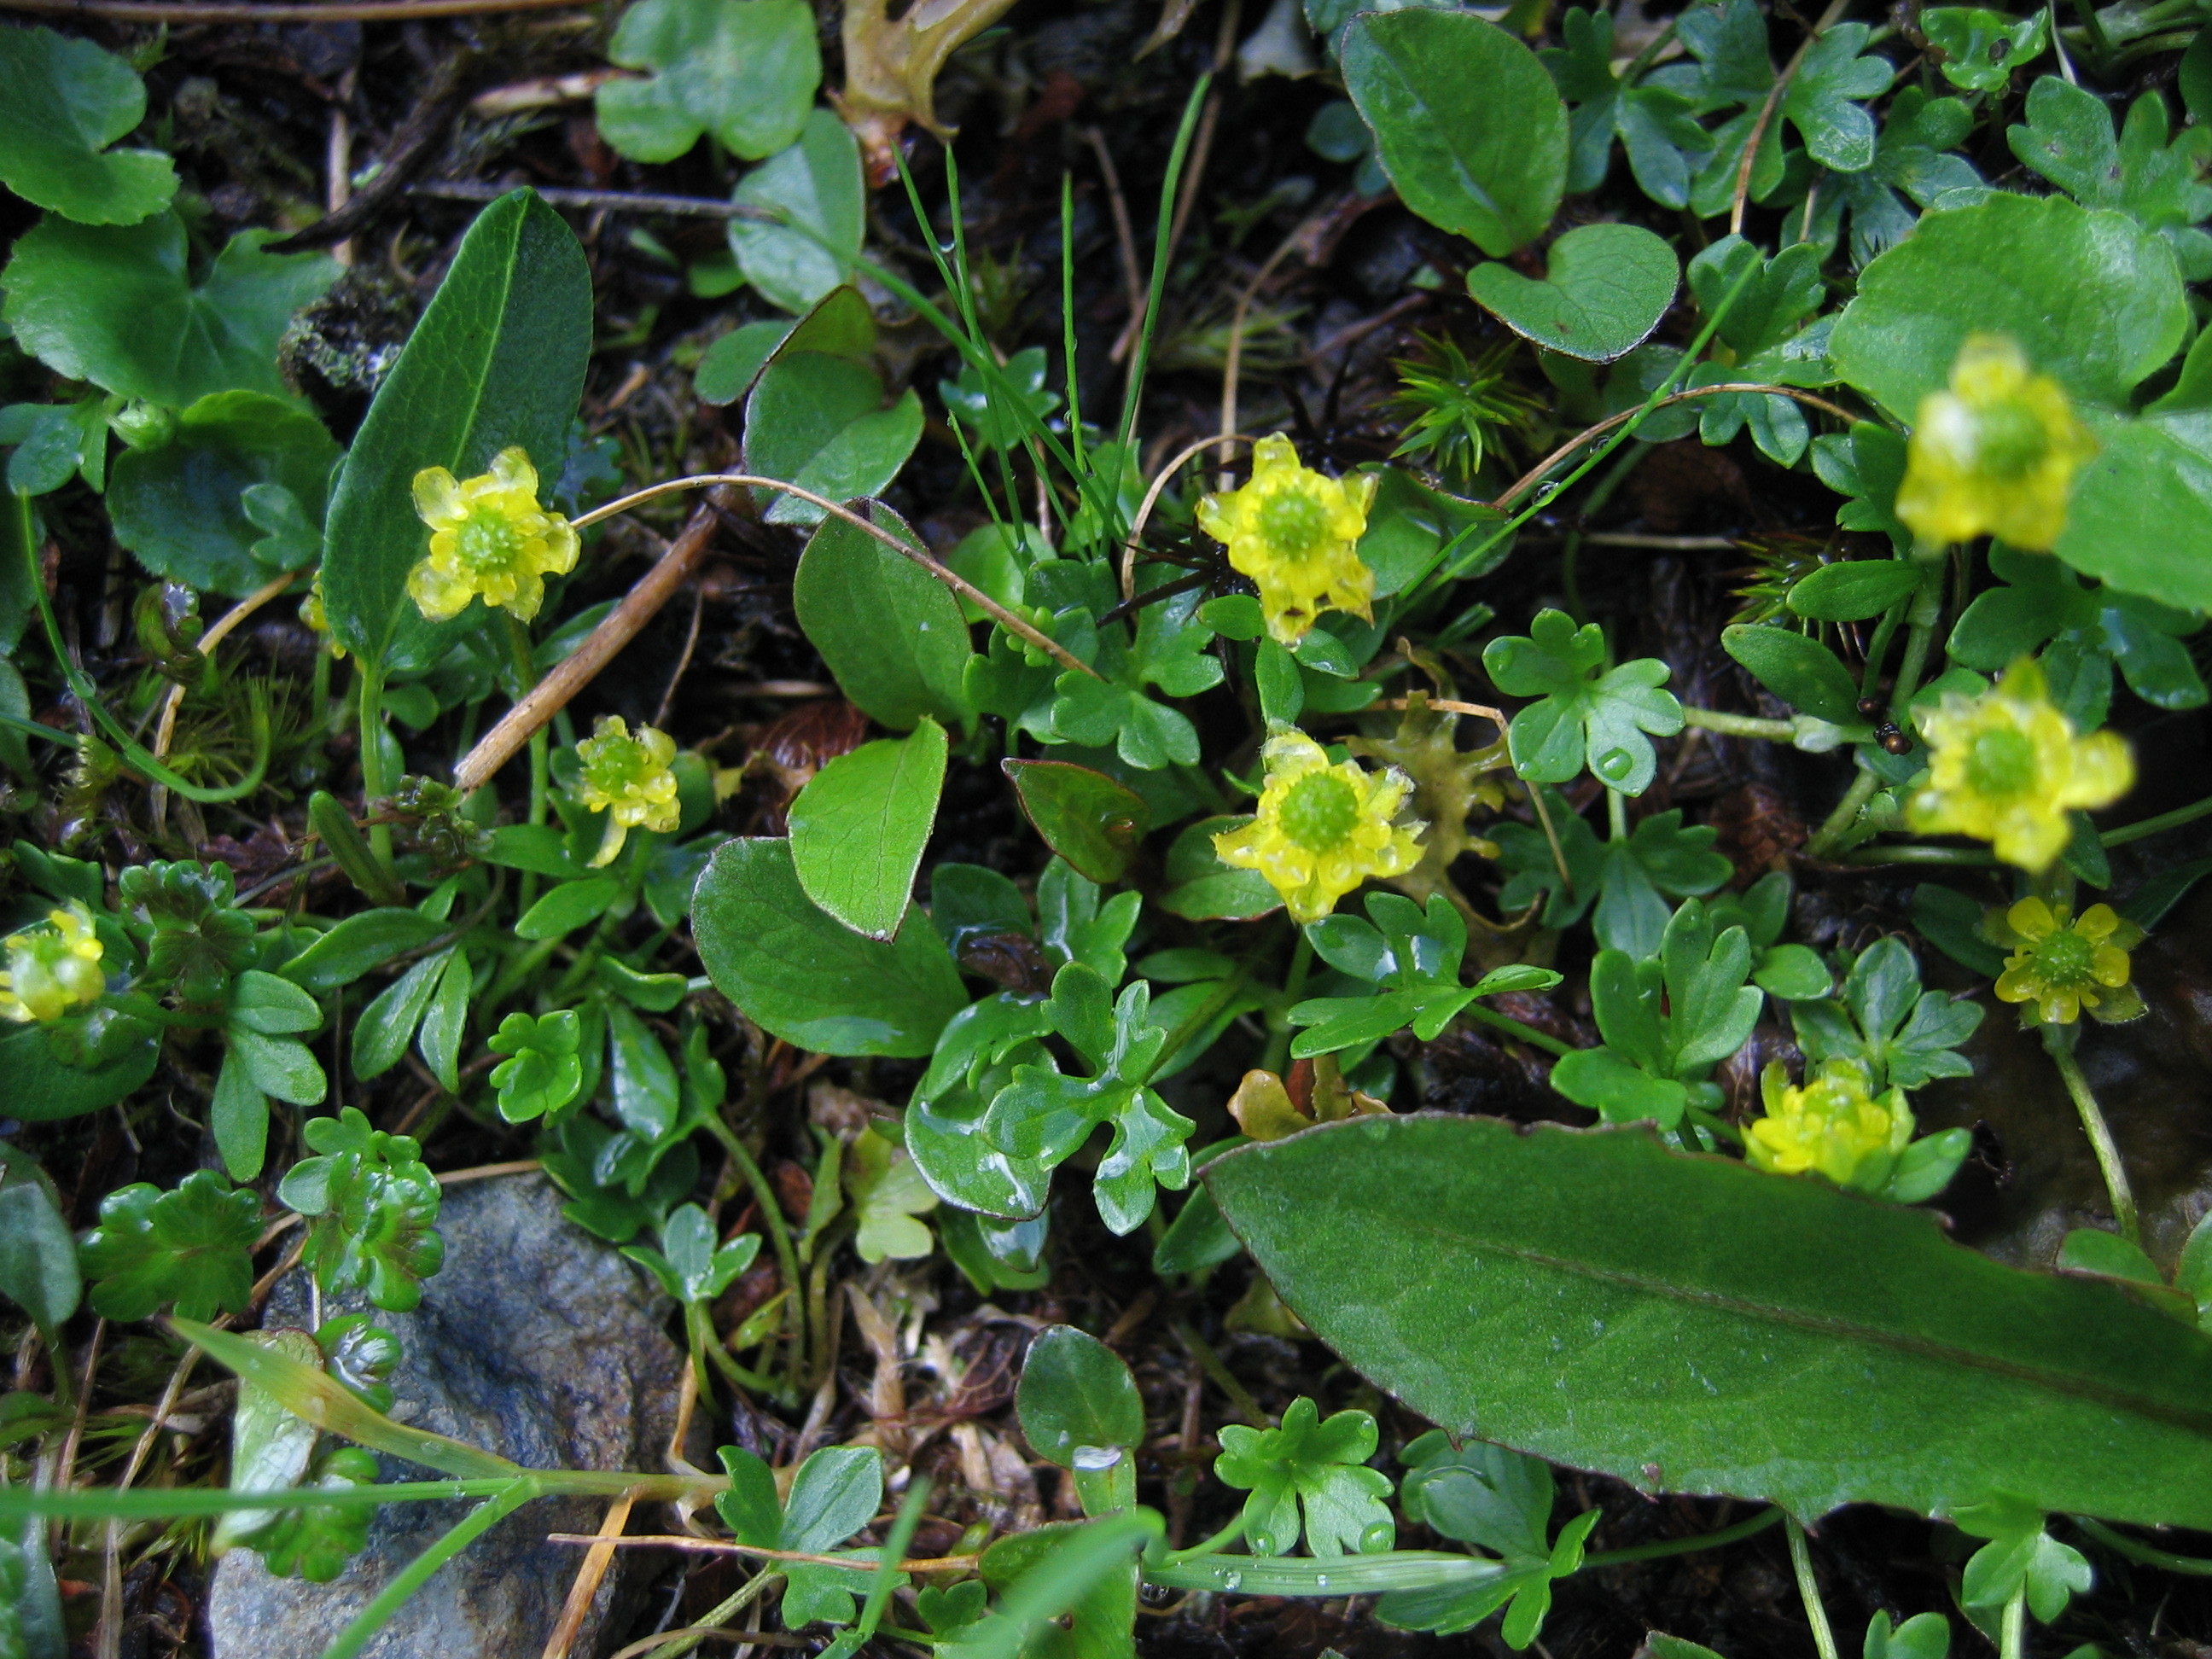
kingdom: Plantae
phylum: Tracheophyta
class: Magnoliopsida
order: Ranunculales
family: Ranunculaceae
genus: Ranunculus
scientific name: Ranunculus pygmaeus
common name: Dwarf buttercup
